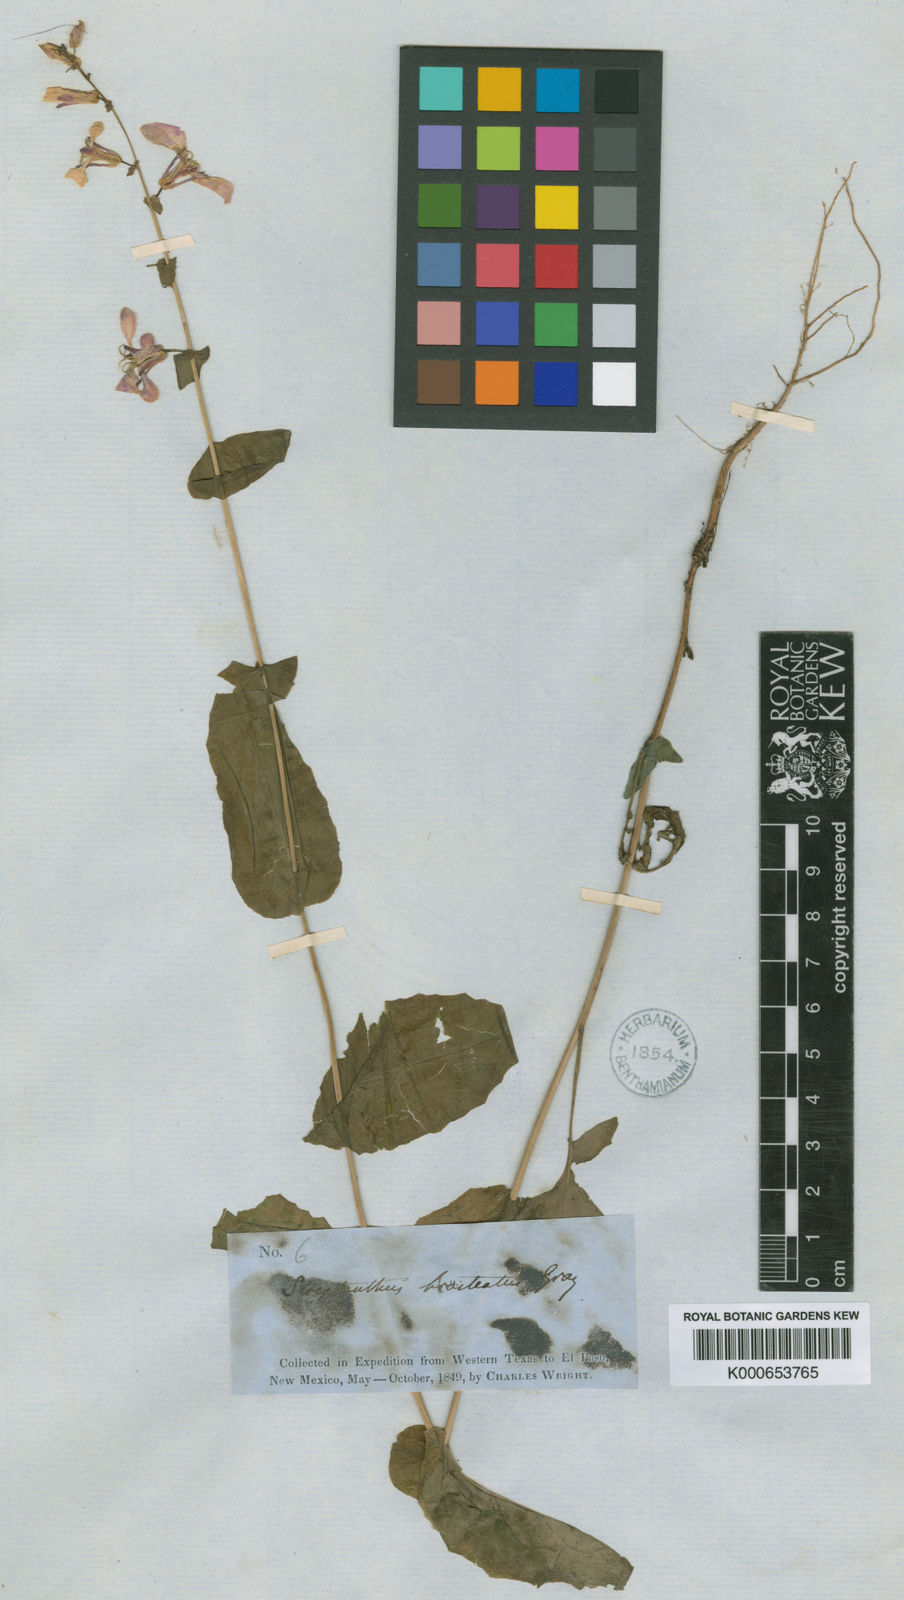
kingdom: Plantae
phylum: Tracheophyta
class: Magnoliopsida
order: Brassicales
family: Brassicaceae
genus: Streptanthus
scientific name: Streptanthus bracteatus
